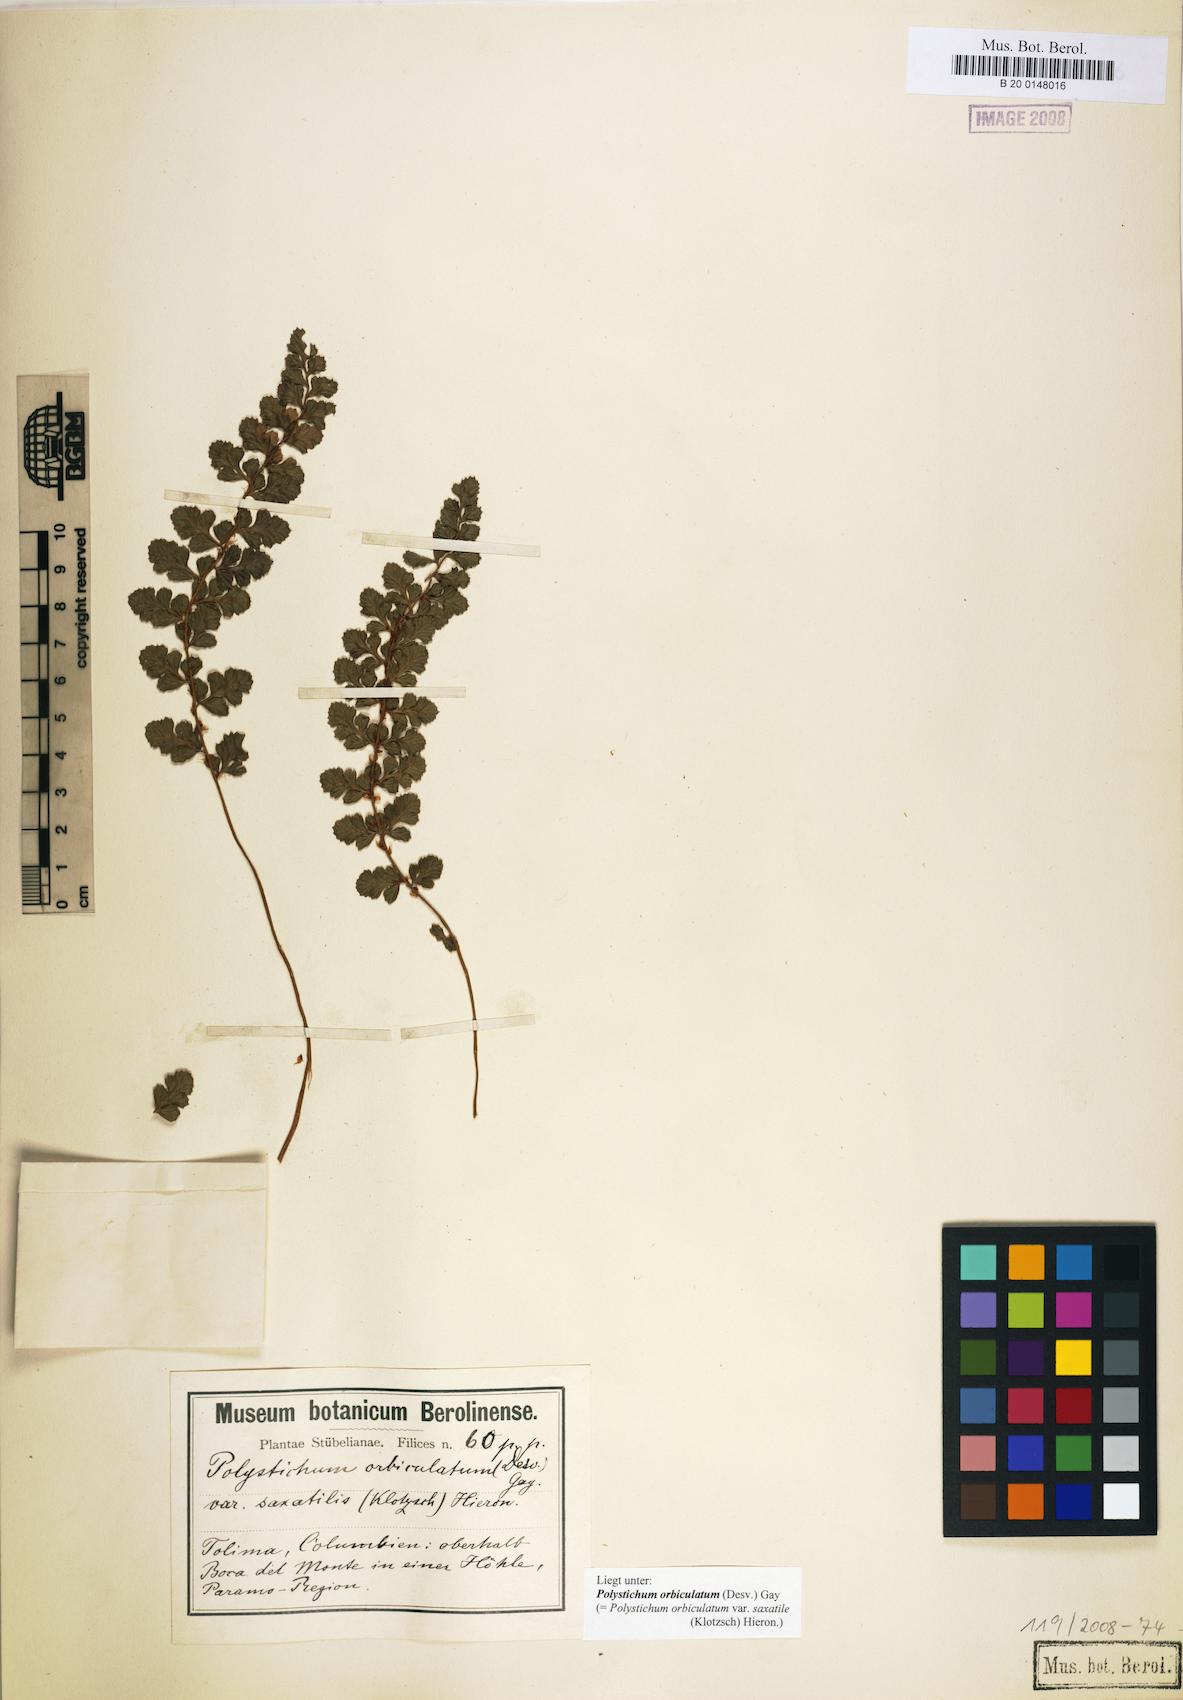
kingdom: Plantae
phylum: Tracheophyta
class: Polypodiopsida
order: Polypodiales
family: Dryopteridaceae
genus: Polystichum
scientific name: Polystichum orbiculatum
